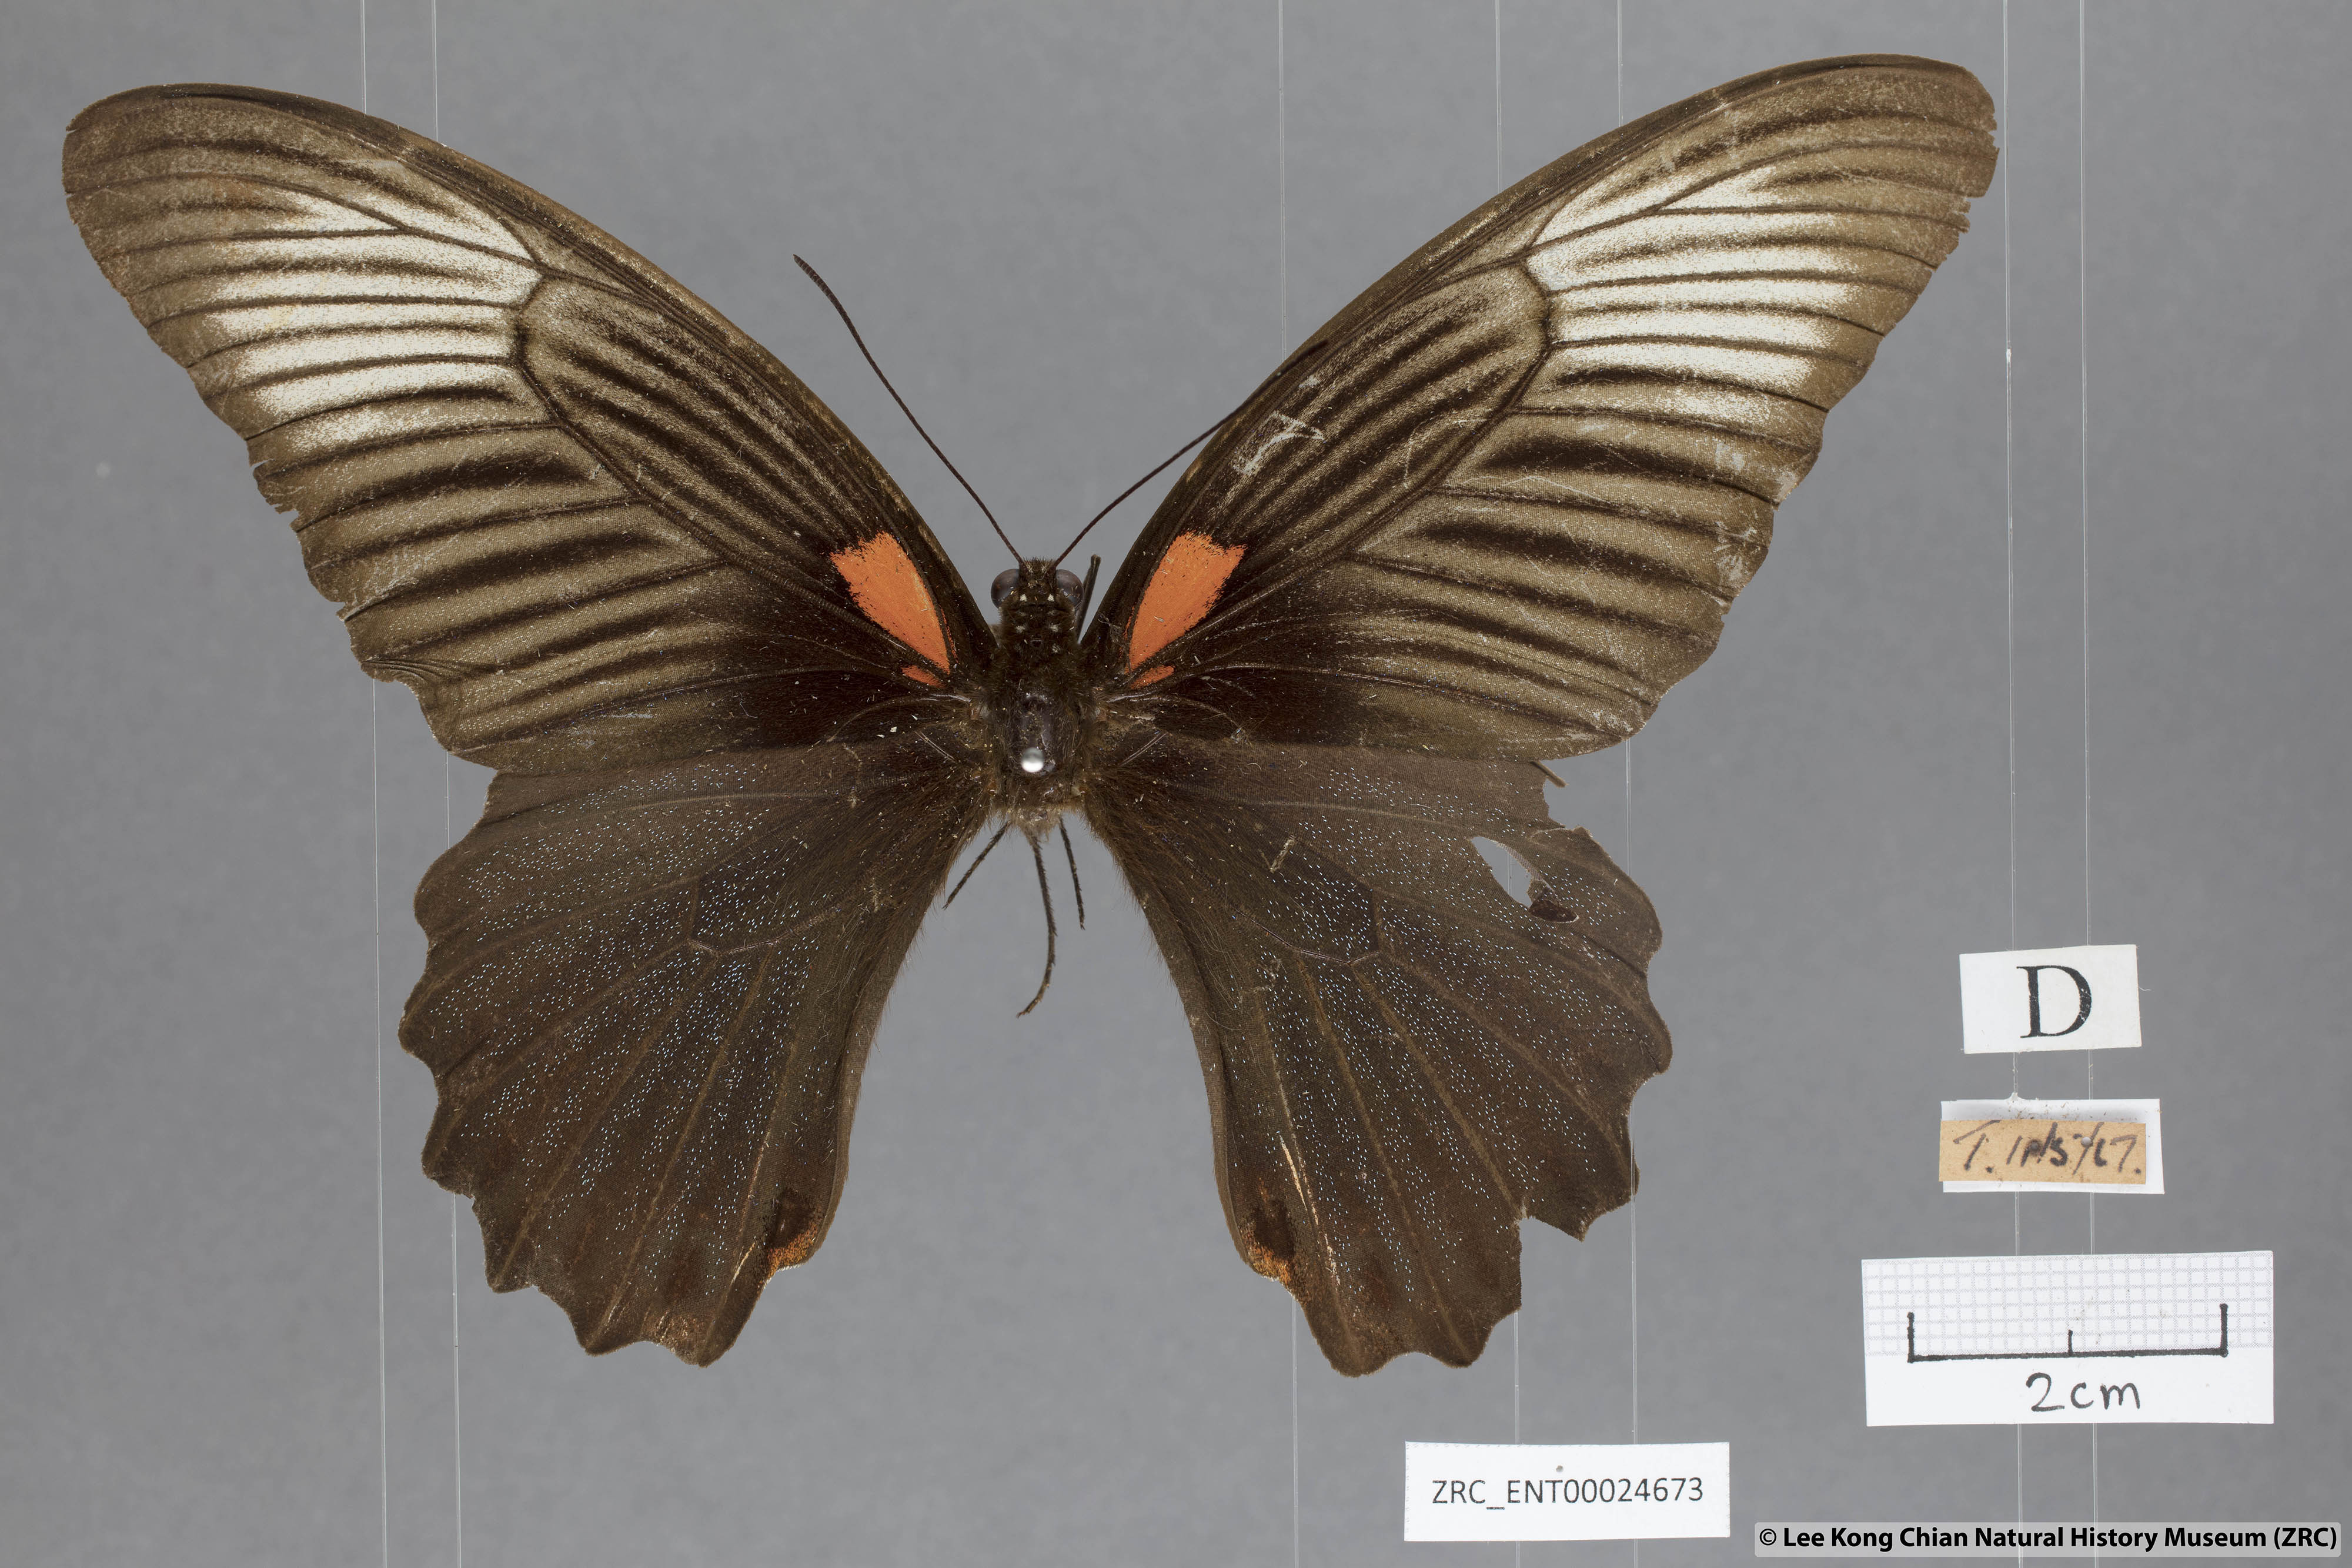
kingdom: Animalia
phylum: Arthropoda
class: Insecta
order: Lepidoptera
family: Papilionidae
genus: Papilio
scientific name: Papilio memnon
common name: Great mormon
